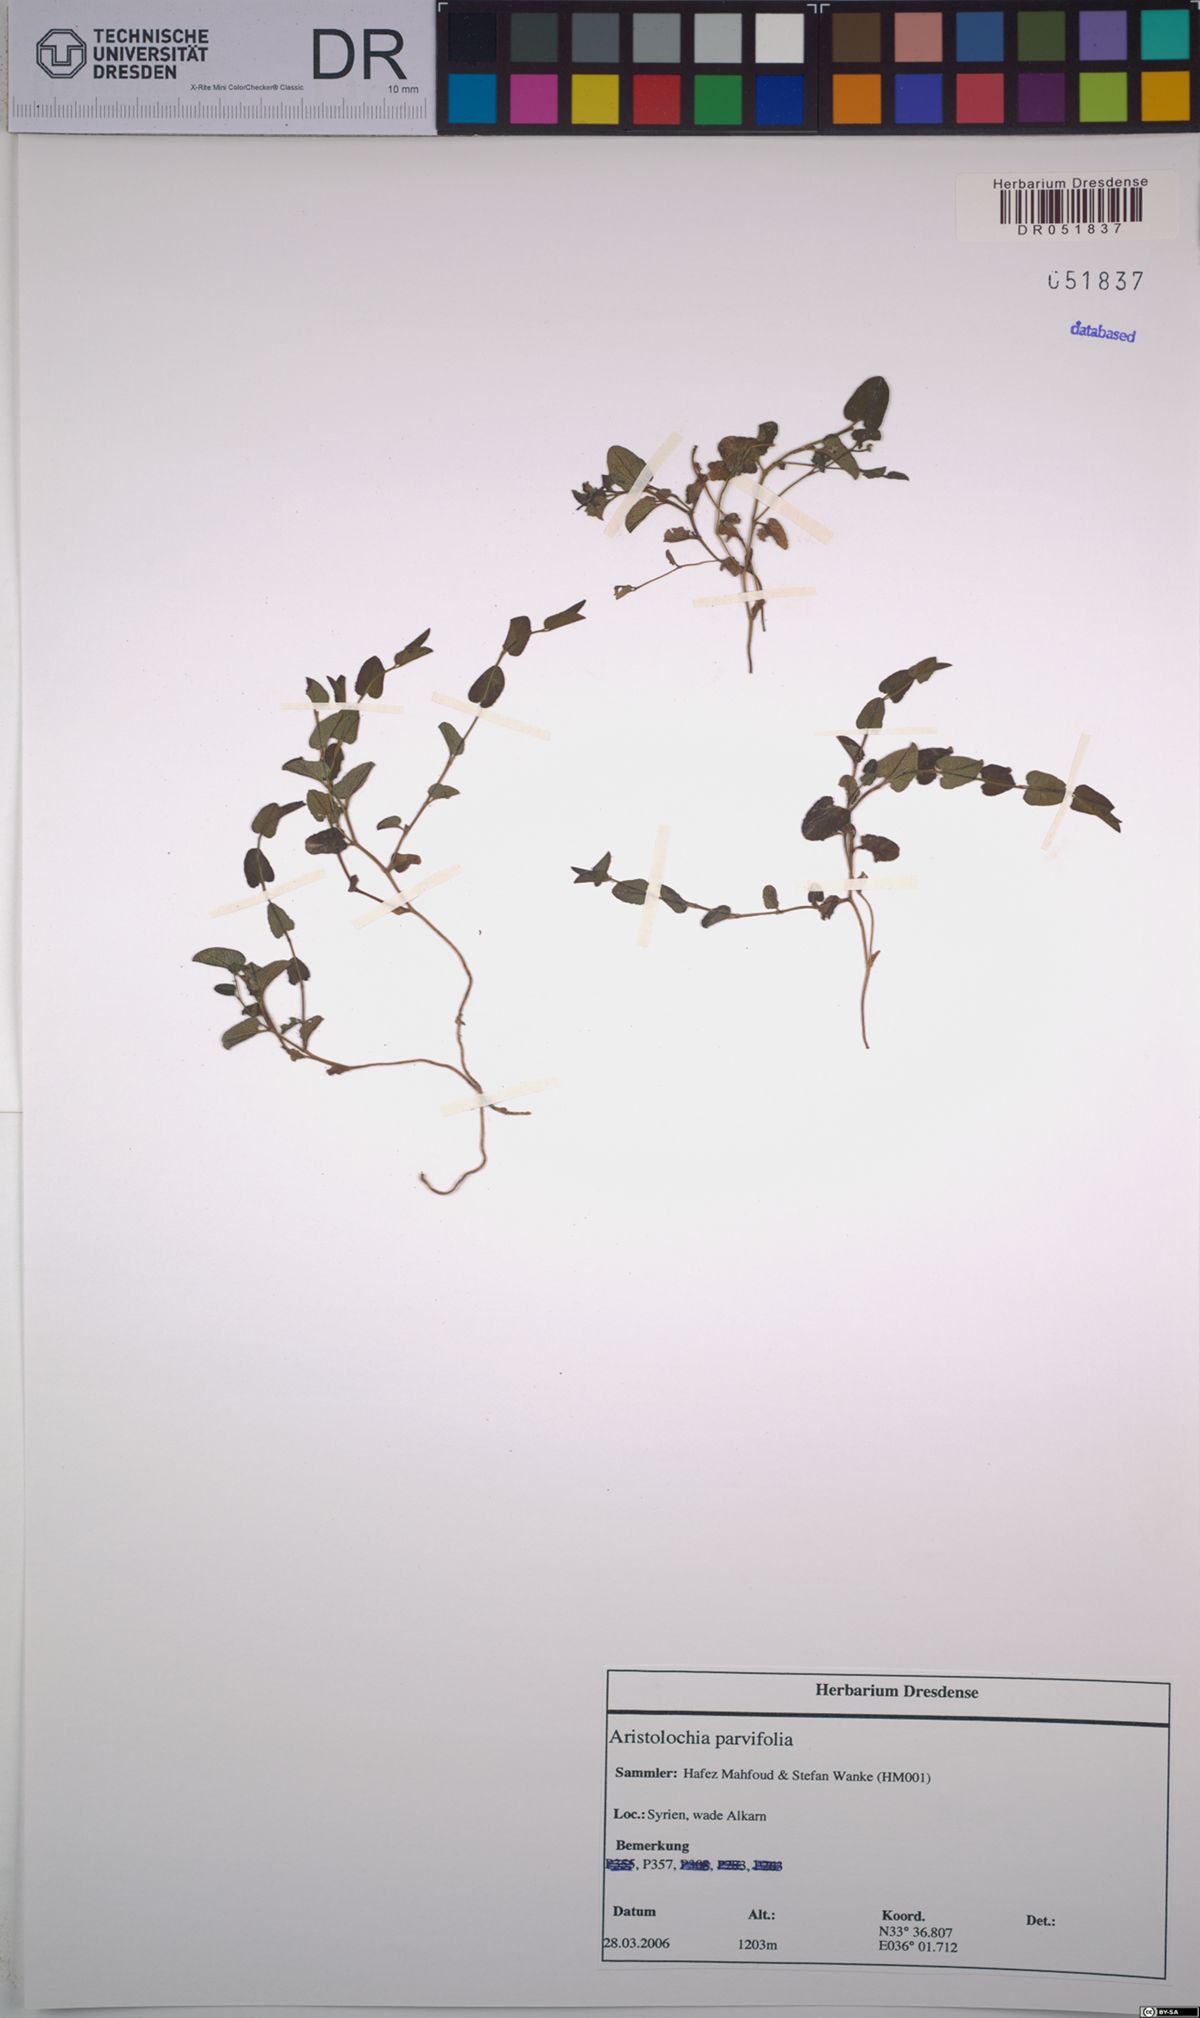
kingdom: Plantae
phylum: Tracheophyta
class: Magnoliopsida
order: Piperales
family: Aristolochiaceae
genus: Aristolochia
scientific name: Aristolochia parvifolia
